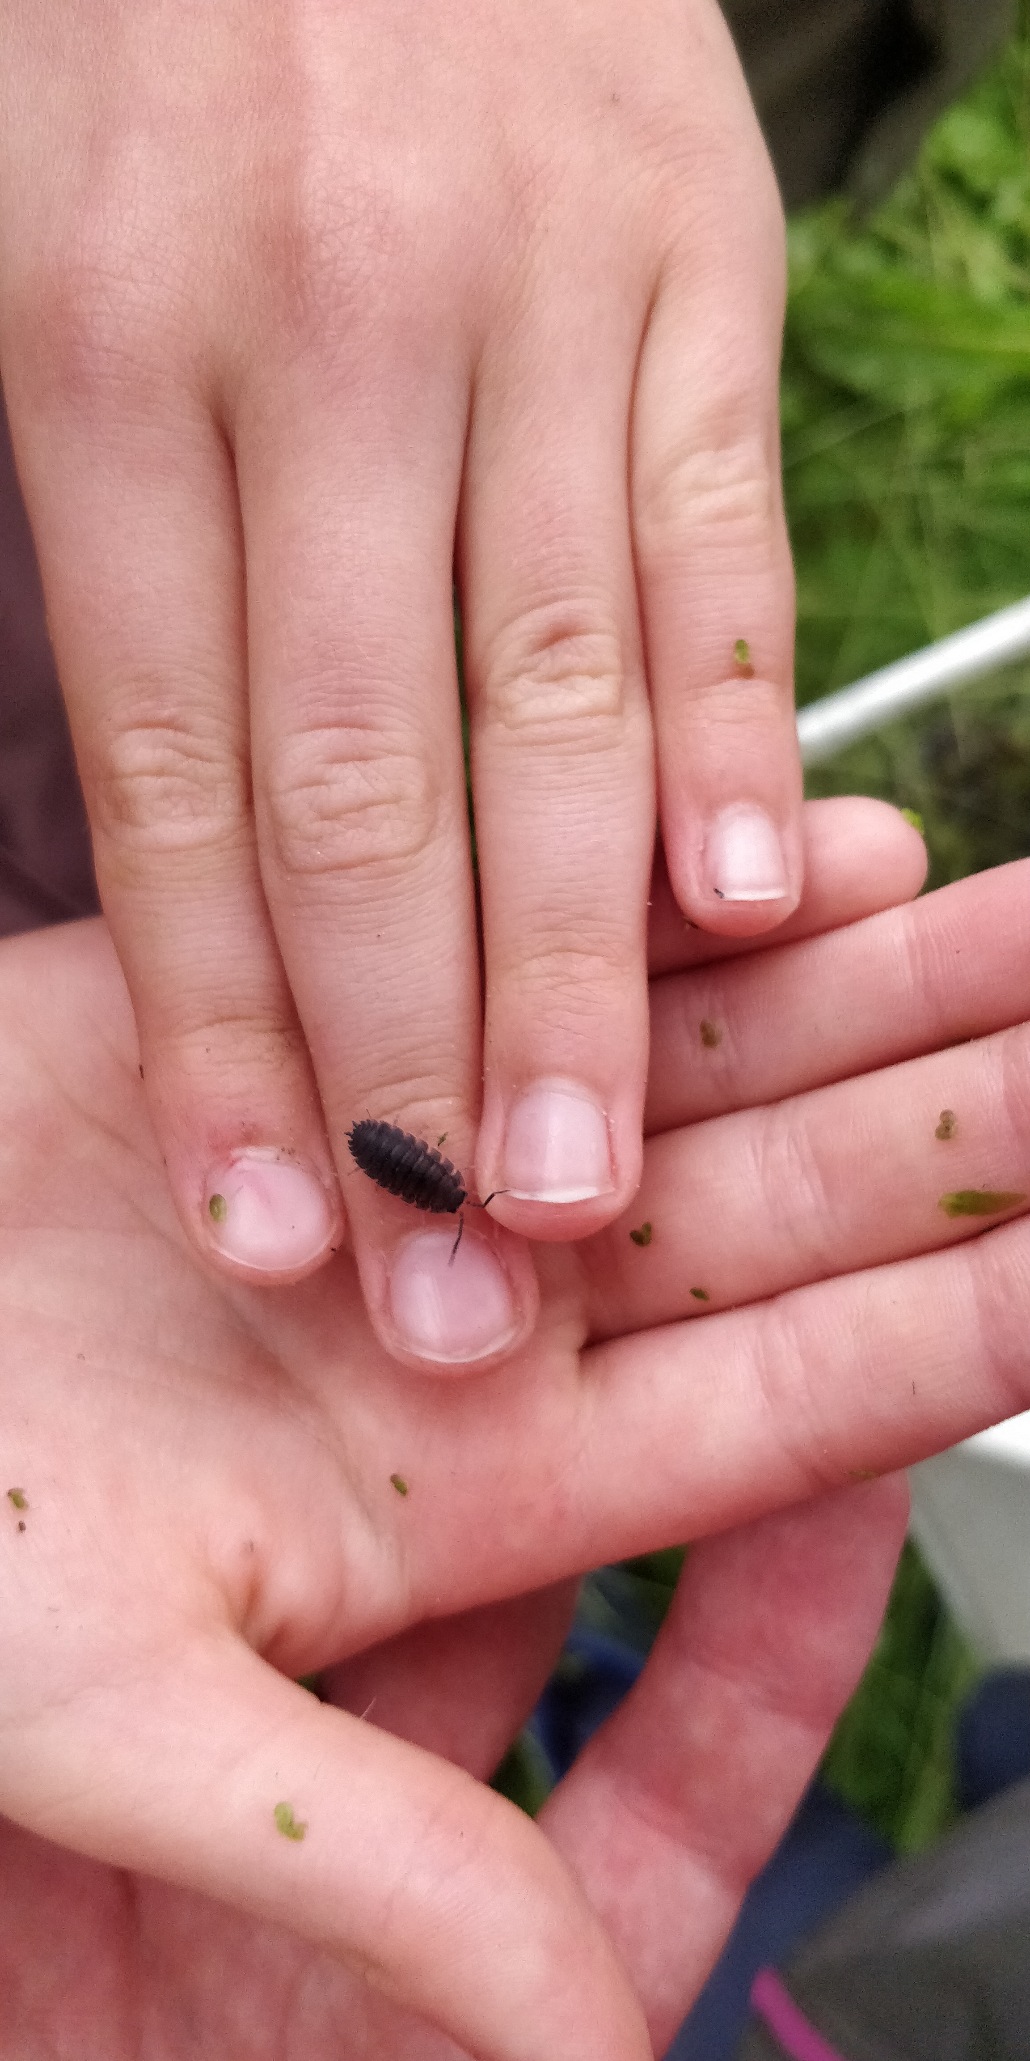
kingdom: Animalia
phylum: Arthropoda
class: Malacostraca
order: Isopoda
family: Porcellionidae
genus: Porcellio
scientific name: Porcellio scaber
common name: Grå bænkebider
